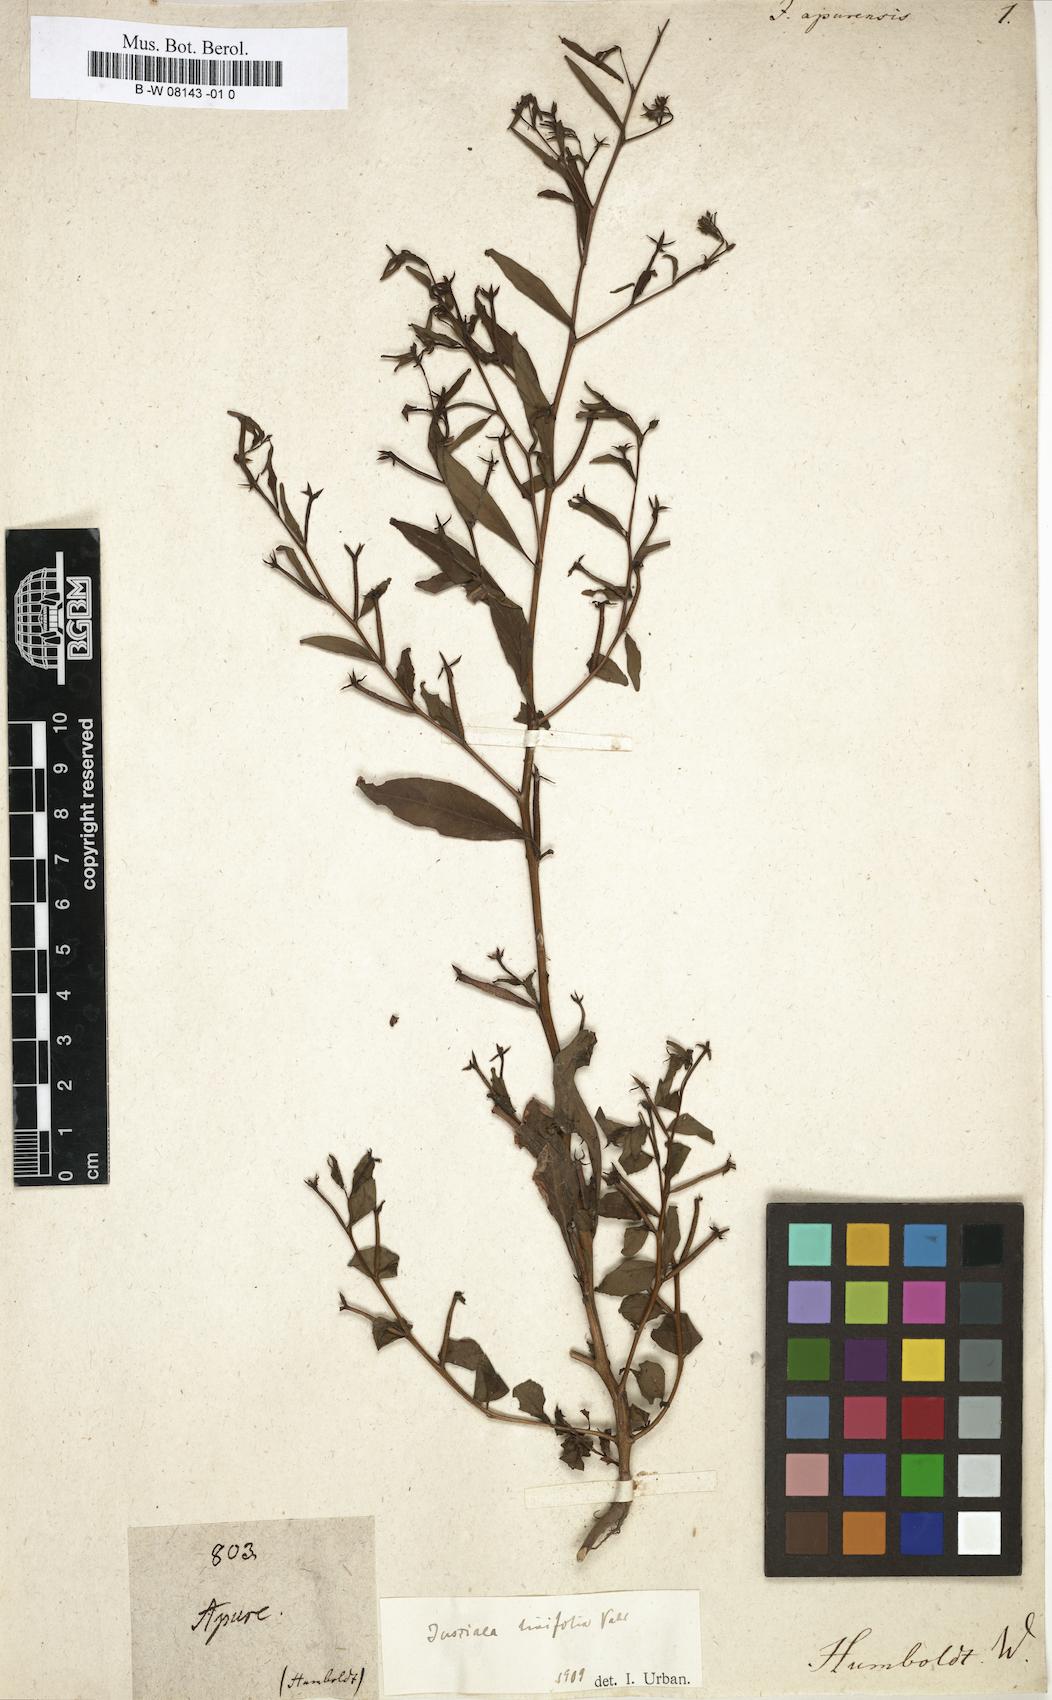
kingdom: Plantae
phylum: Tracheophyta
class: Magnoliopsida
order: Myrtales
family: Onagraceae
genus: Ludwigia
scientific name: Ludwigia
